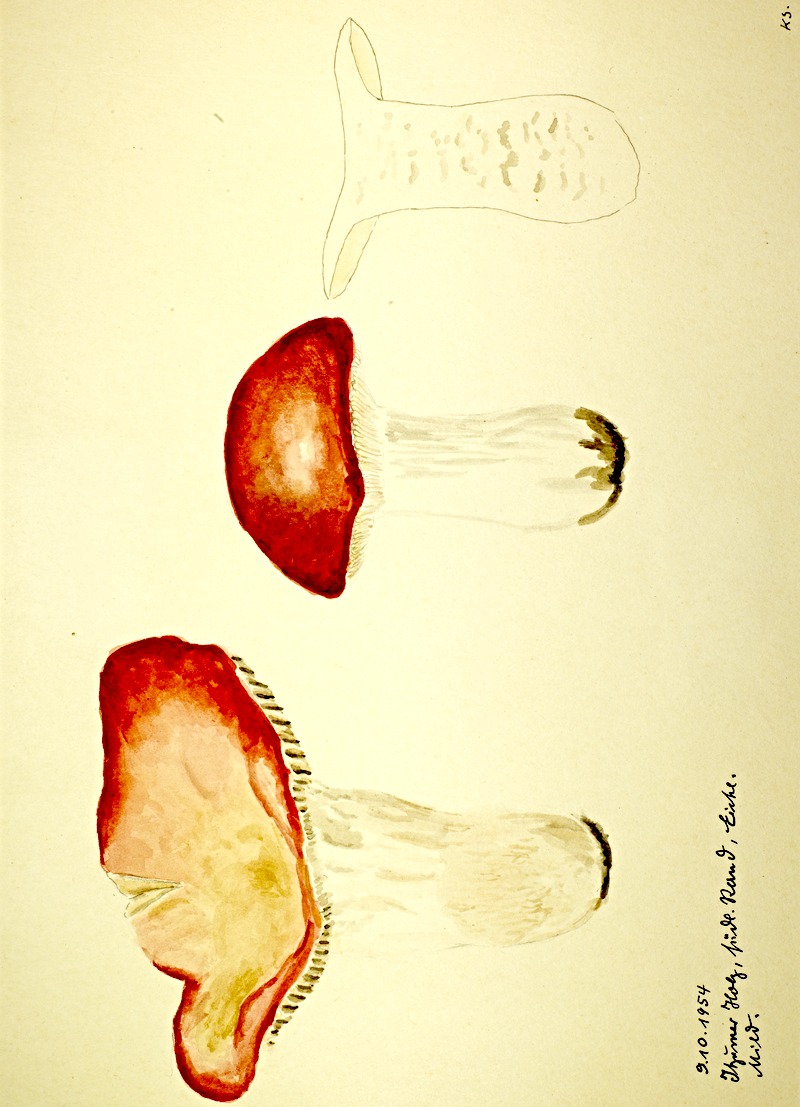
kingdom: Fungi
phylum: Basidiomycota
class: Agaricomycetes
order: Russulales
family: Russulaceae
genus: Russula
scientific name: Russula
